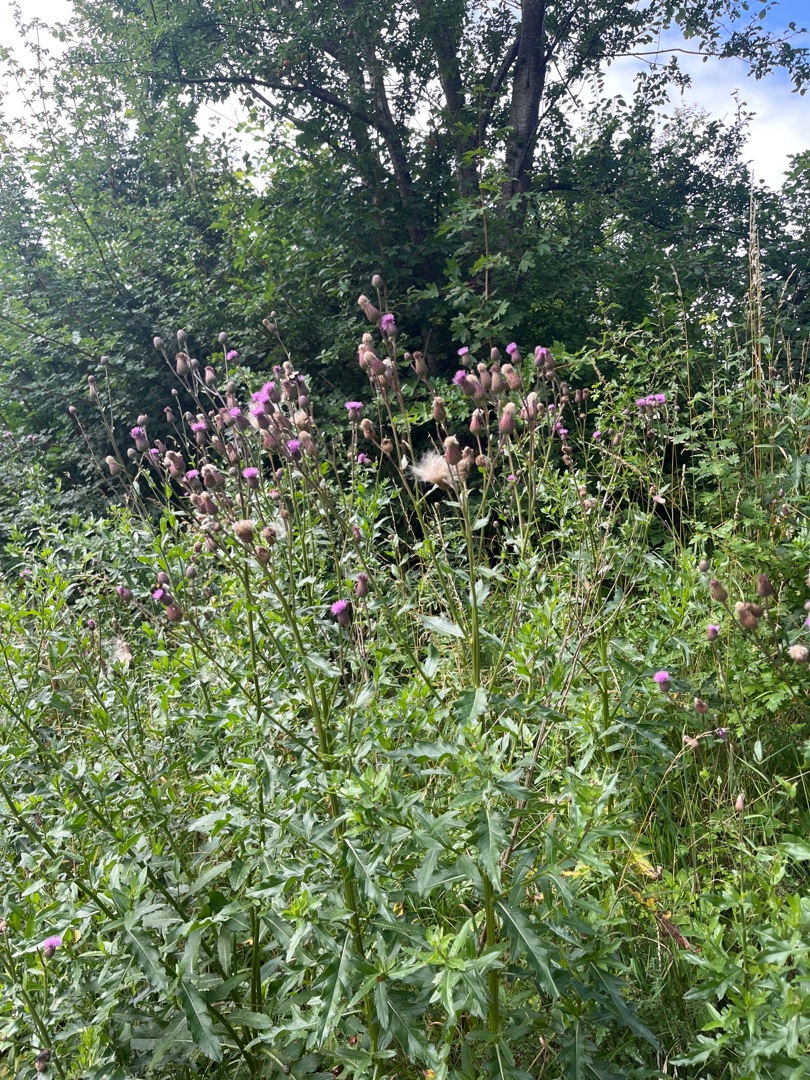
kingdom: Plantae
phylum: Tracheophyta
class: Magnoliopsida
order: Asterales
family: Asteraceae
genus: Cirsium
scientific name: Cirsium arvense
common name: Ager-tidsel
